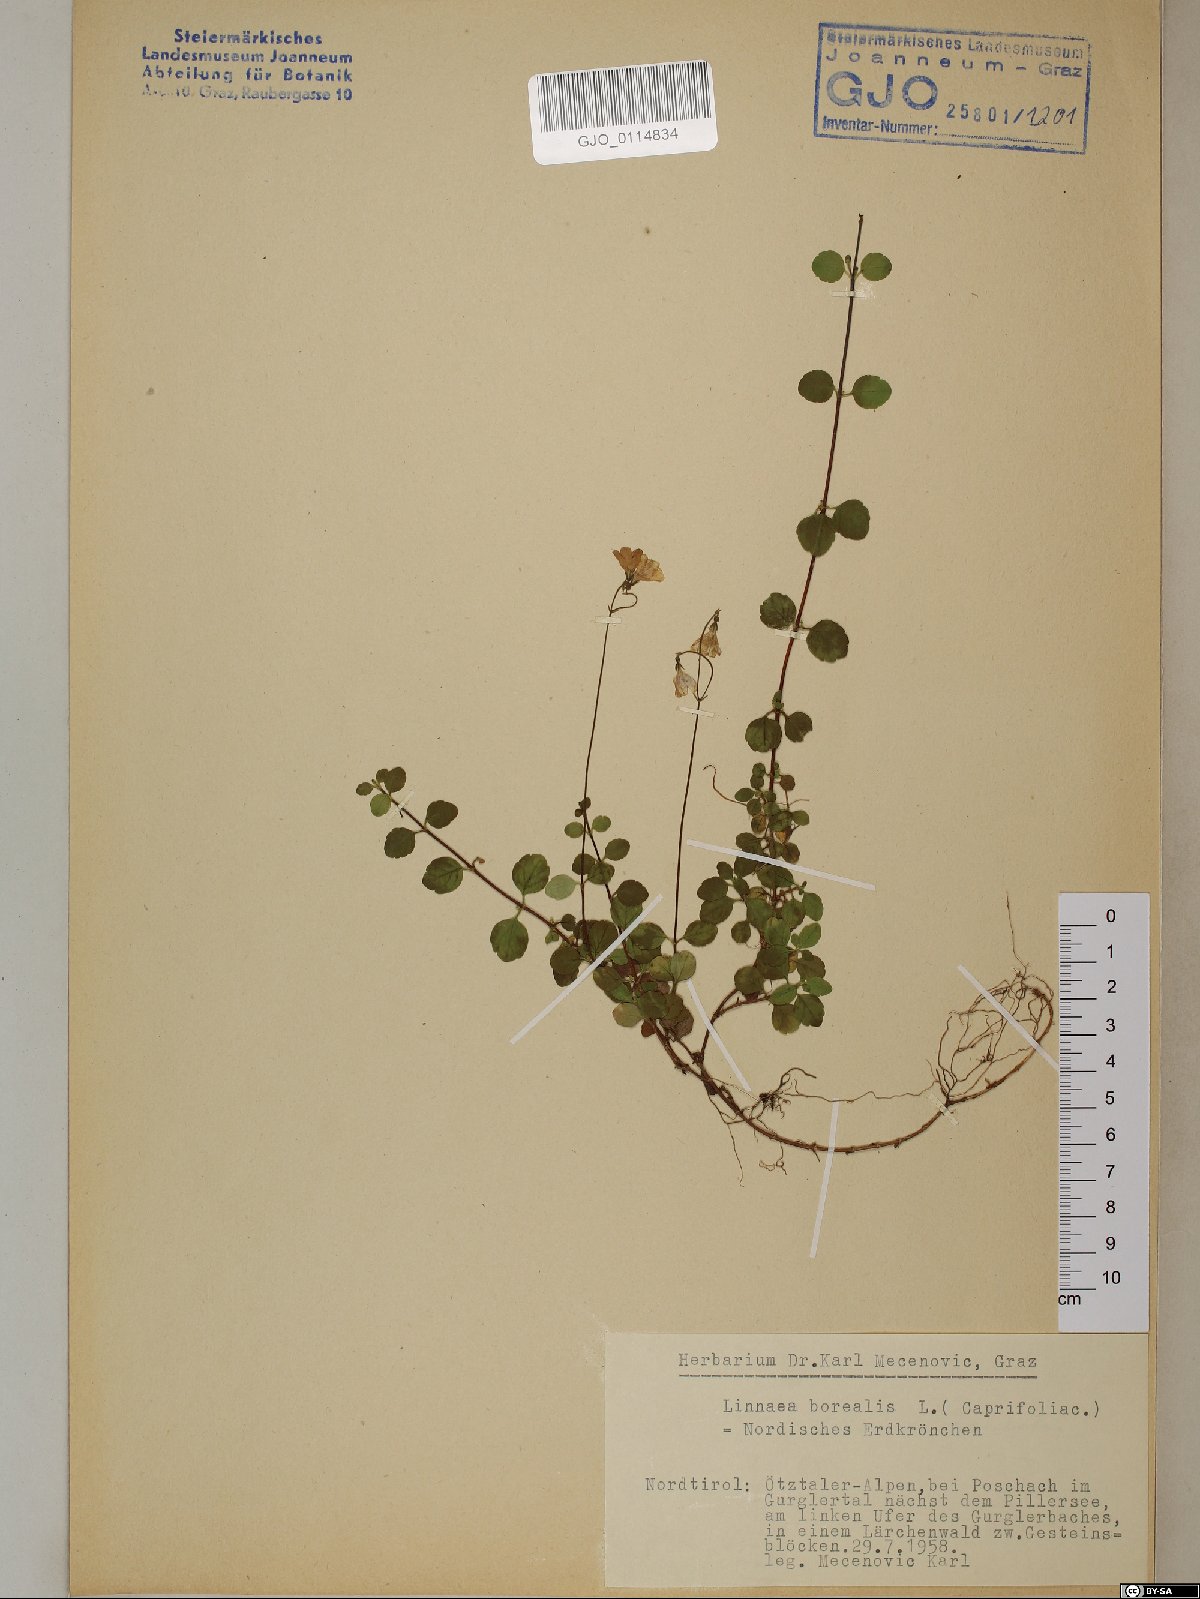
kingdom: Plantae
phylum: Tracheophyta
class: Magnoliopsida
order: Dipsacales
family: Caprifoliaceae
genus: Linnaea
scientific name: Linnaea borealis
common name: Twinflower
